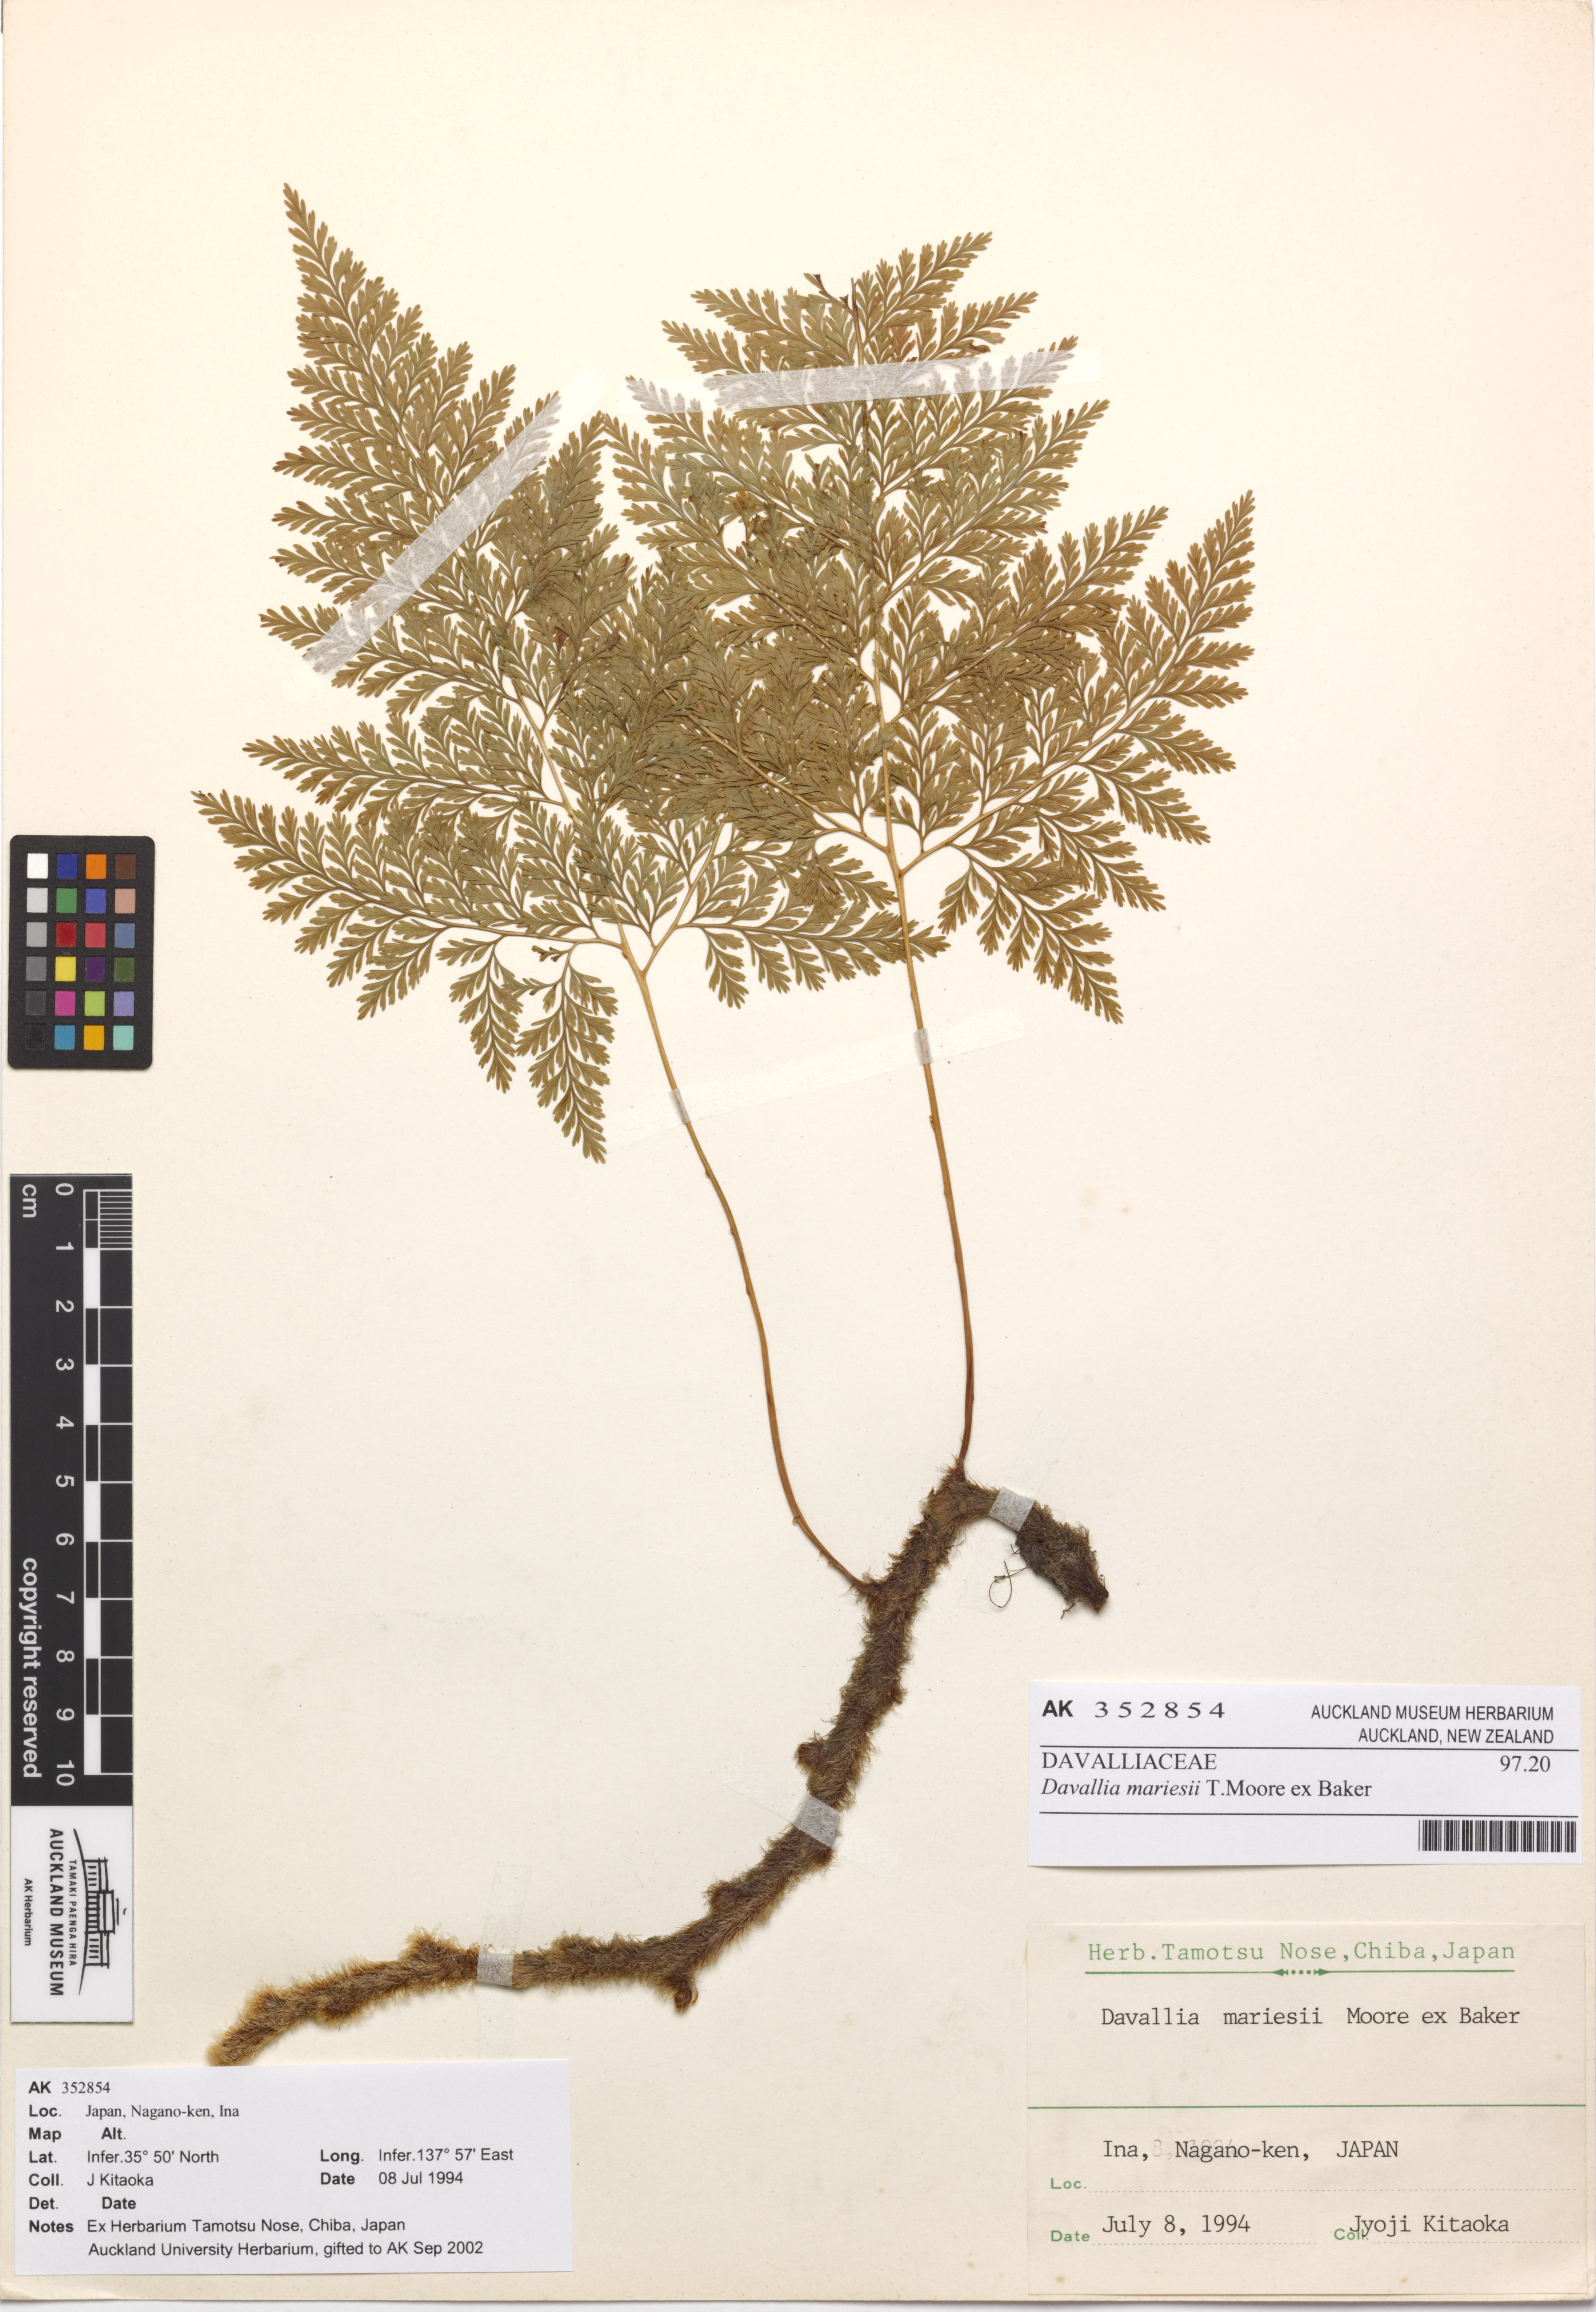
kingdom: Plantae
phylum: Tracheophyta
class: Polypodiopsida
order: Polypodiales
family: Davalliaceae
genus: Davallia
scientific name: Davallia bullata
